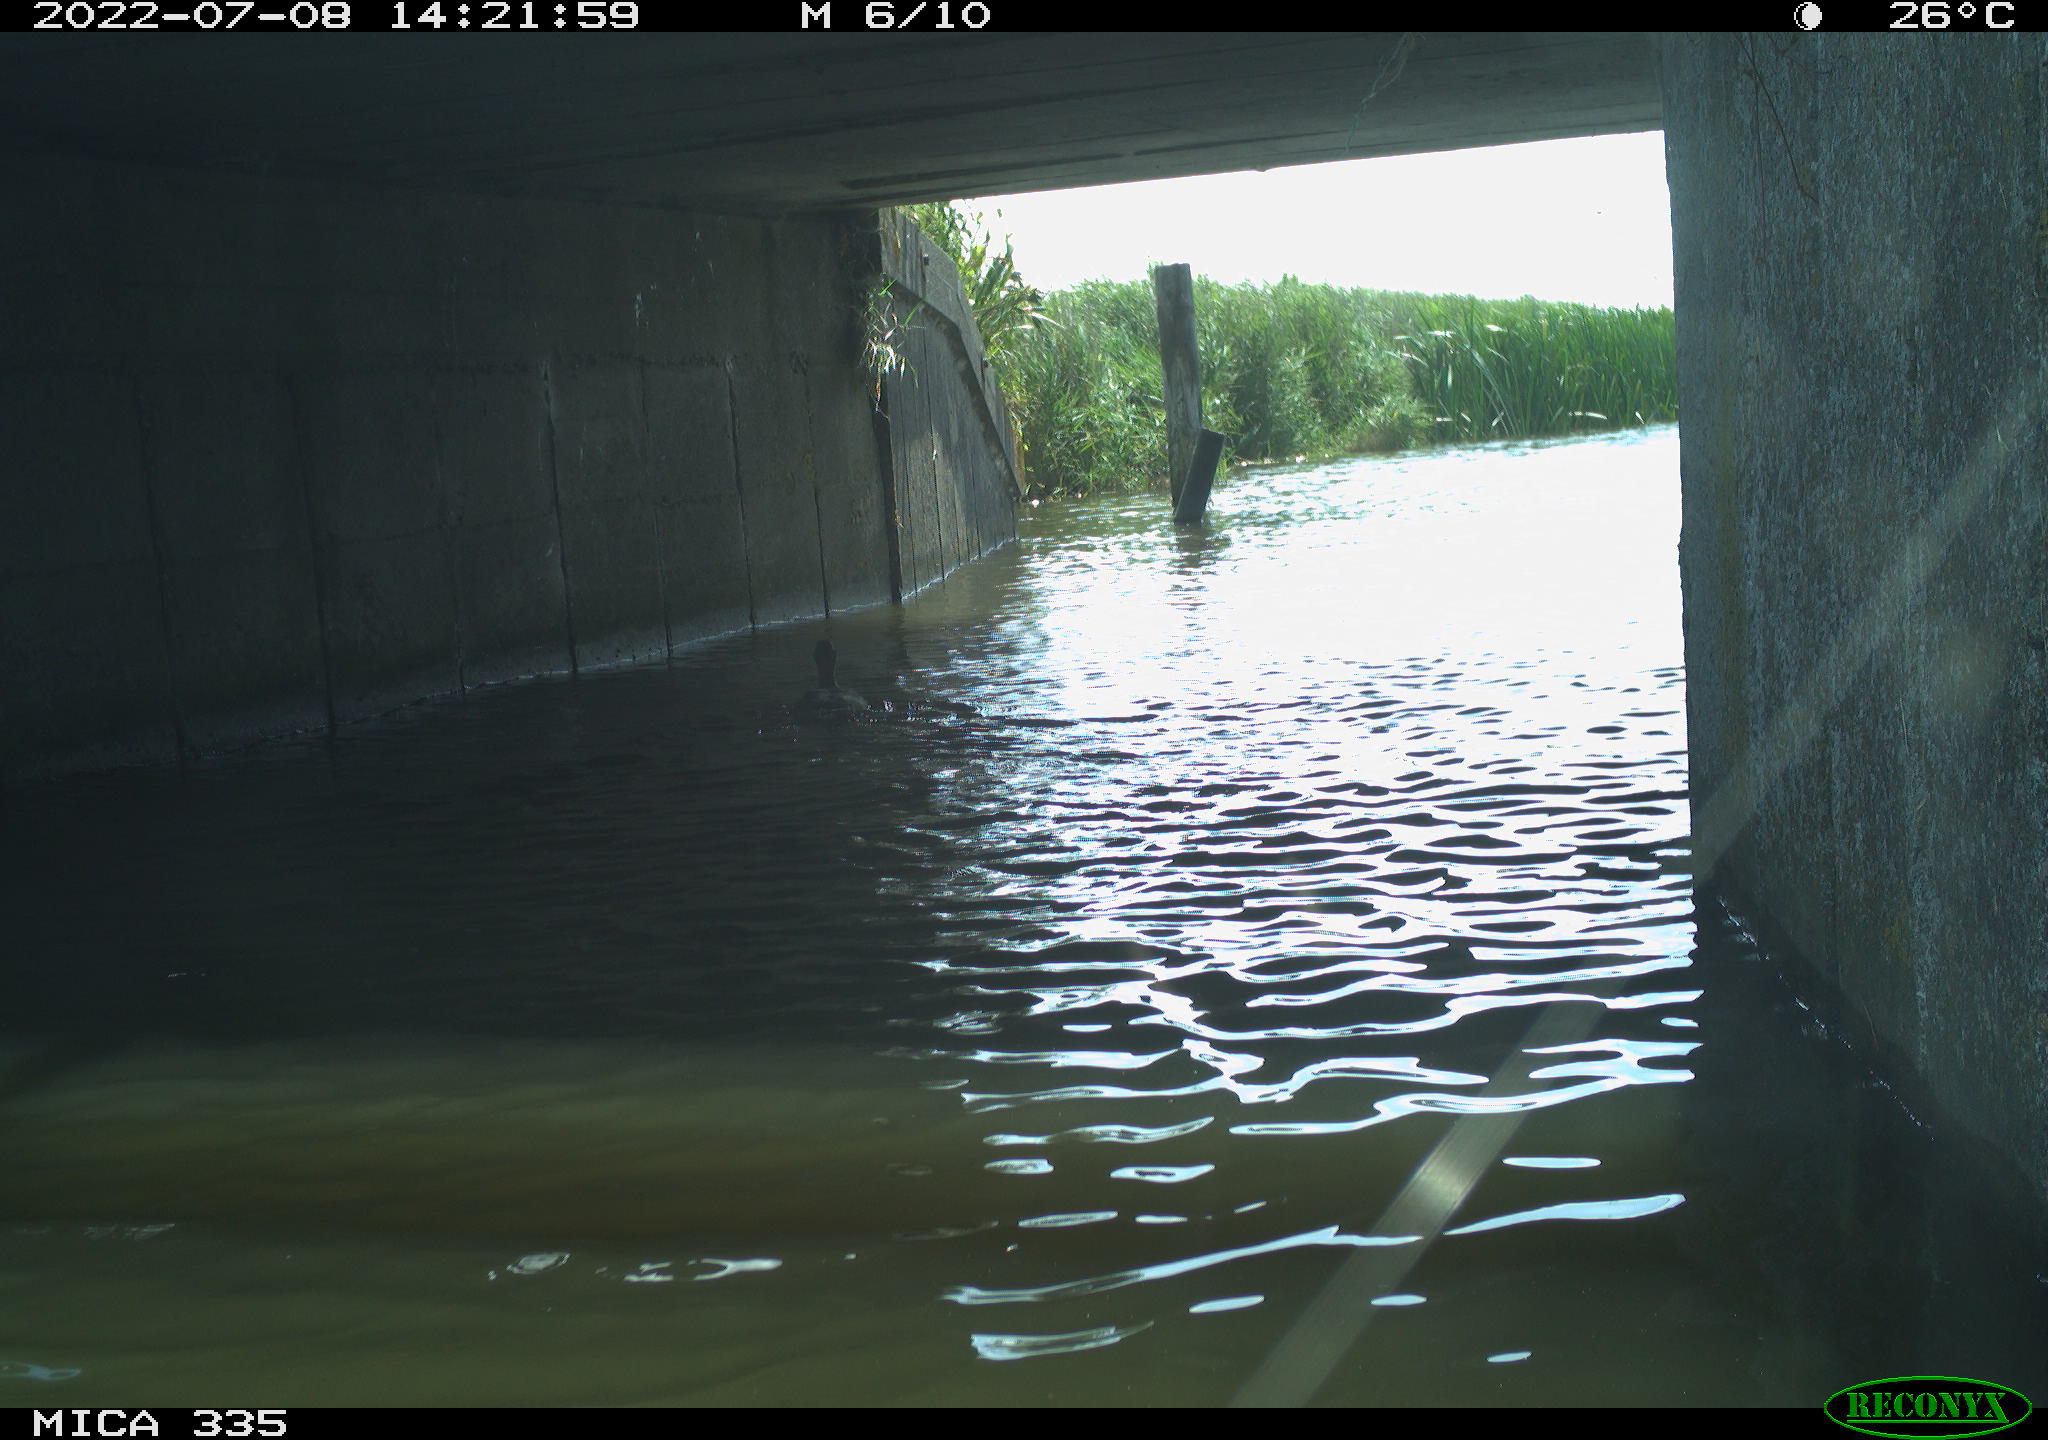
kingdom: Animalia
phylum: Chordata
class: Aves
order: Anseriformes
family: Anatidae
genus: Anas
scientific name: Anas platyrhynchos
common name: Mallard
